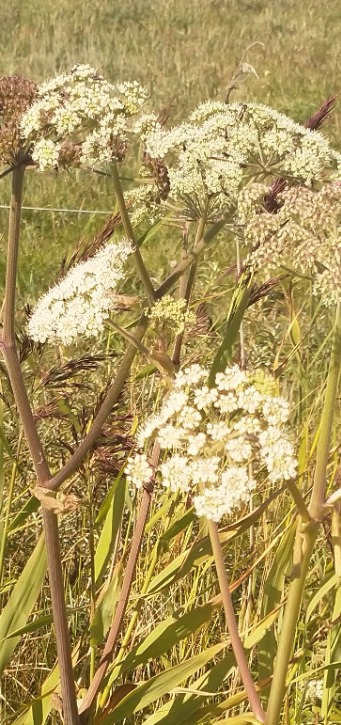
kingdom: Plantae
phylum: Tracheophyta
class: Magnoliopsida
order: Apiales
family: Apiaceae
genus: Angelica
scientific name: Angelica sylvestris
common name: Angelik
